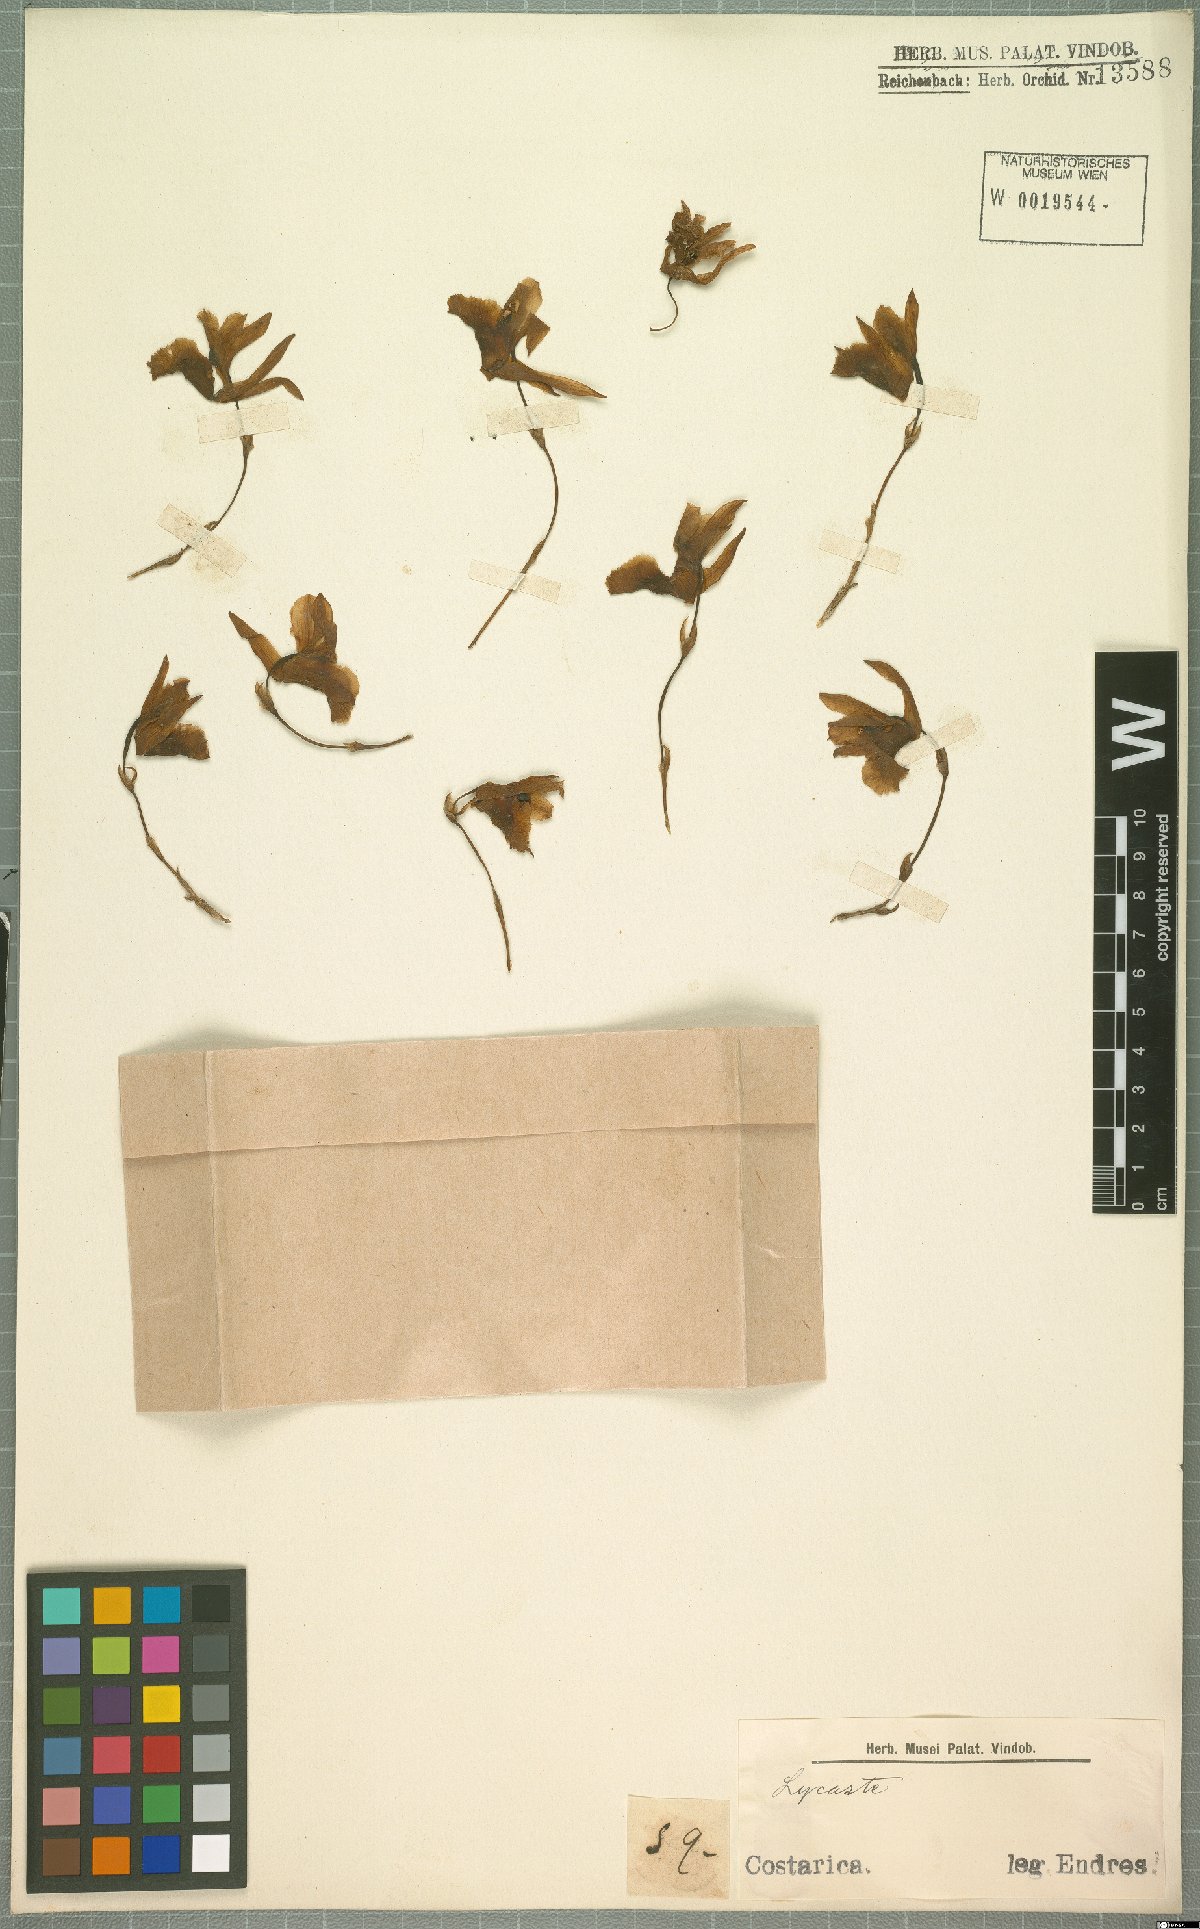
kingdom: Plantae
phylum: Tracheophyta
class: Liliopsida
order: Asparagales
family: Orchidaceae
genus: Lycaste
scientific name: Lycaste
